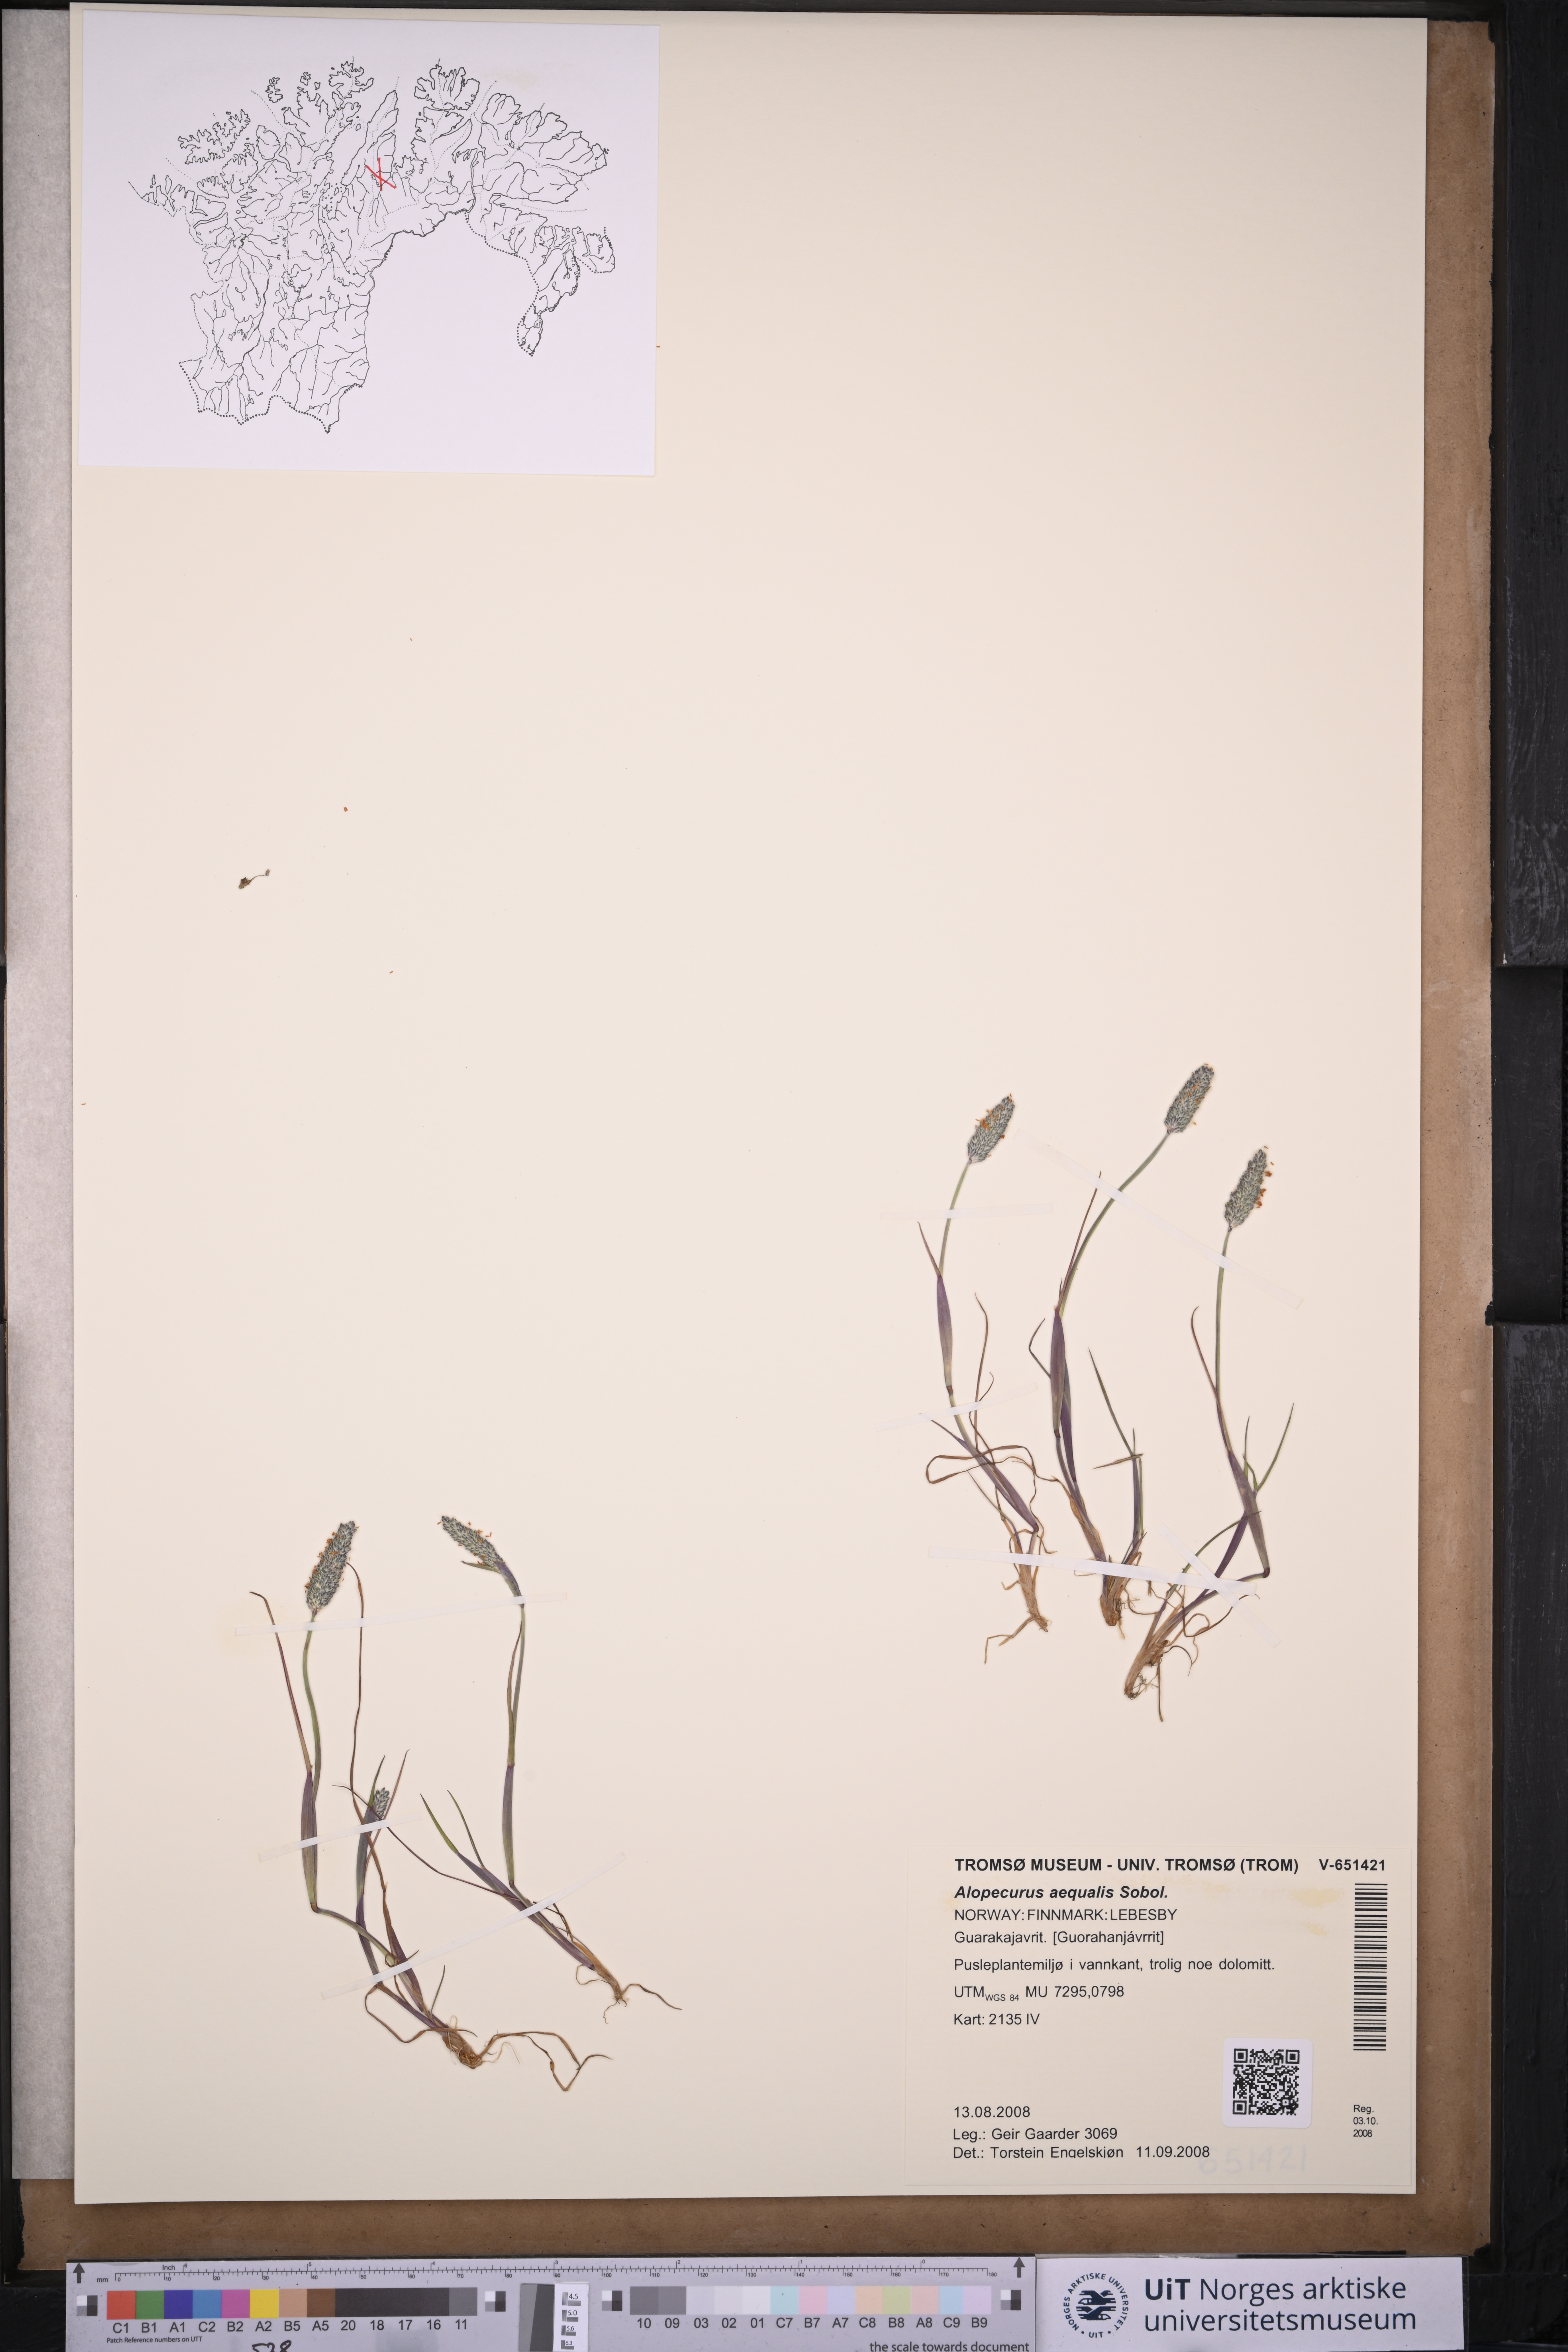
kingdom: Plantae
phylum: Tracheophyta
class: Liliopsida
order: Poales
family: Poaceae
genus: Alopecurus
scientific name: Alopecurus aequalis
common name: Orange foxtail
